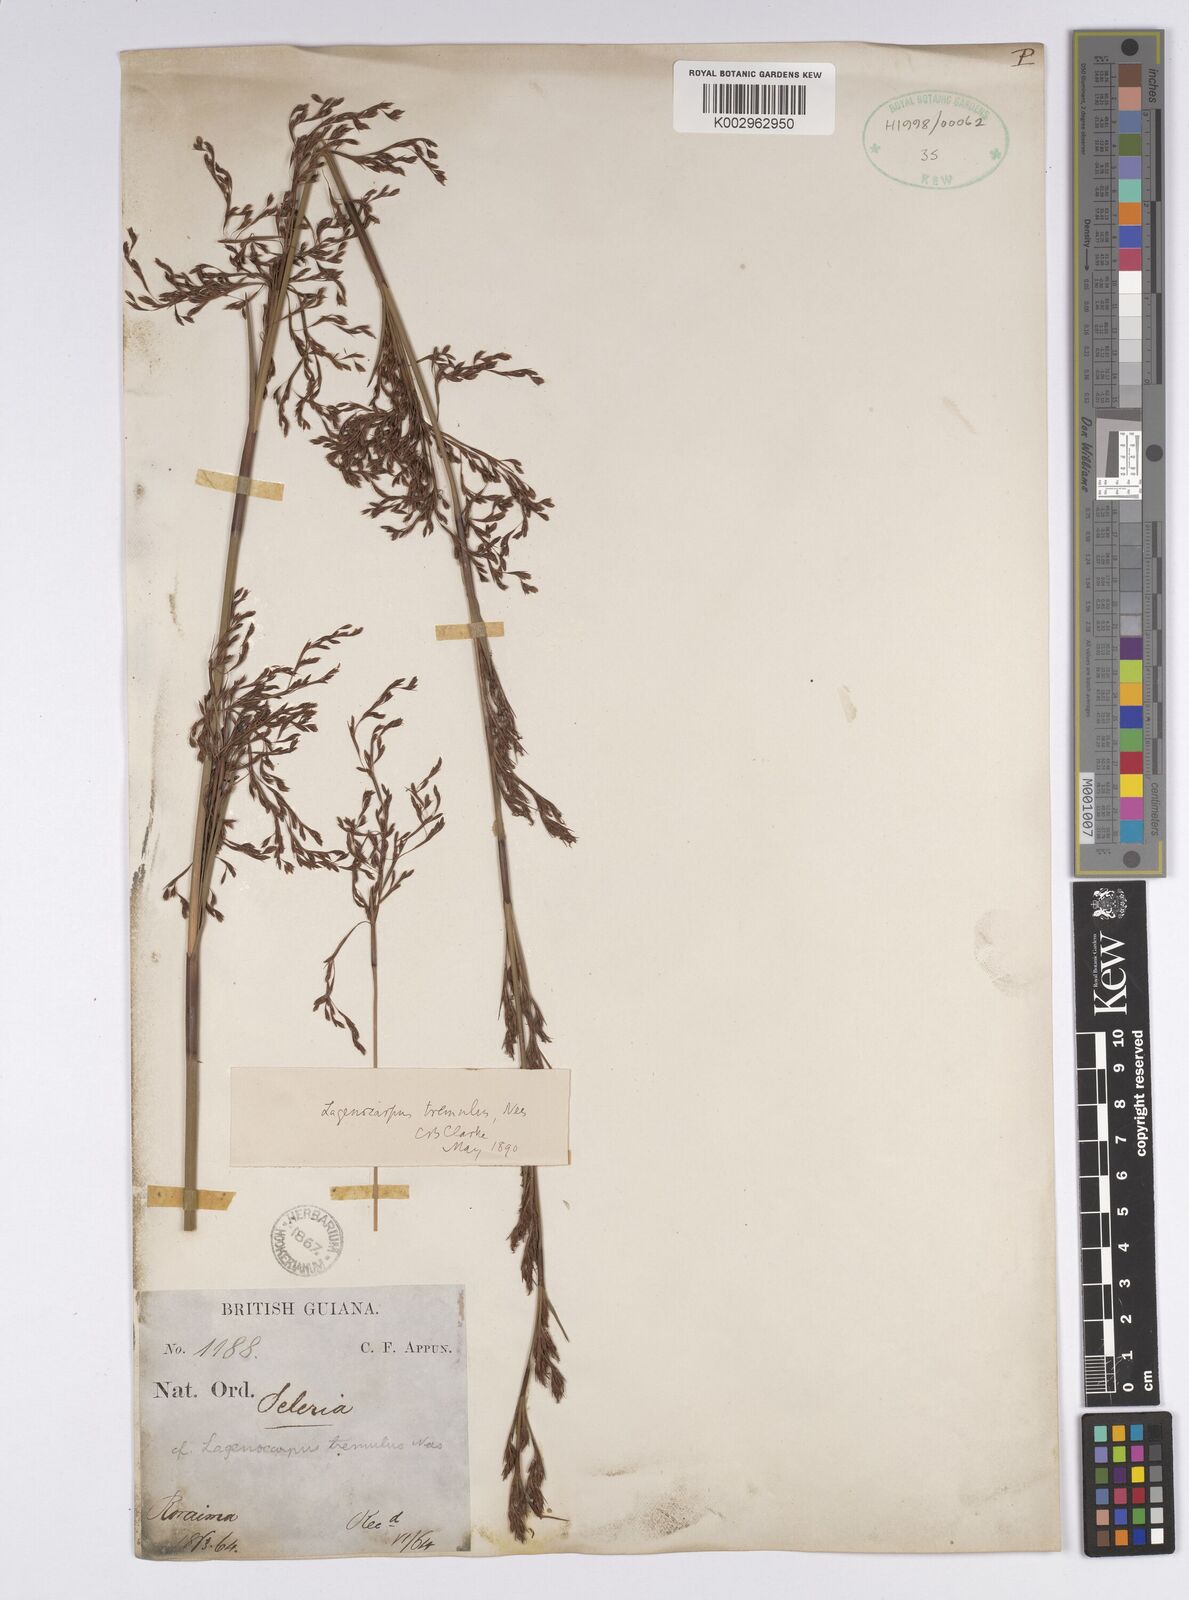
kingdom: Plantae
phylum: Tracheophyta
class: Liliopsida
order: Poales
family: Cyperaceae
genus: Lagenocarpus
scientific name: Lagenocarpus rigidus
